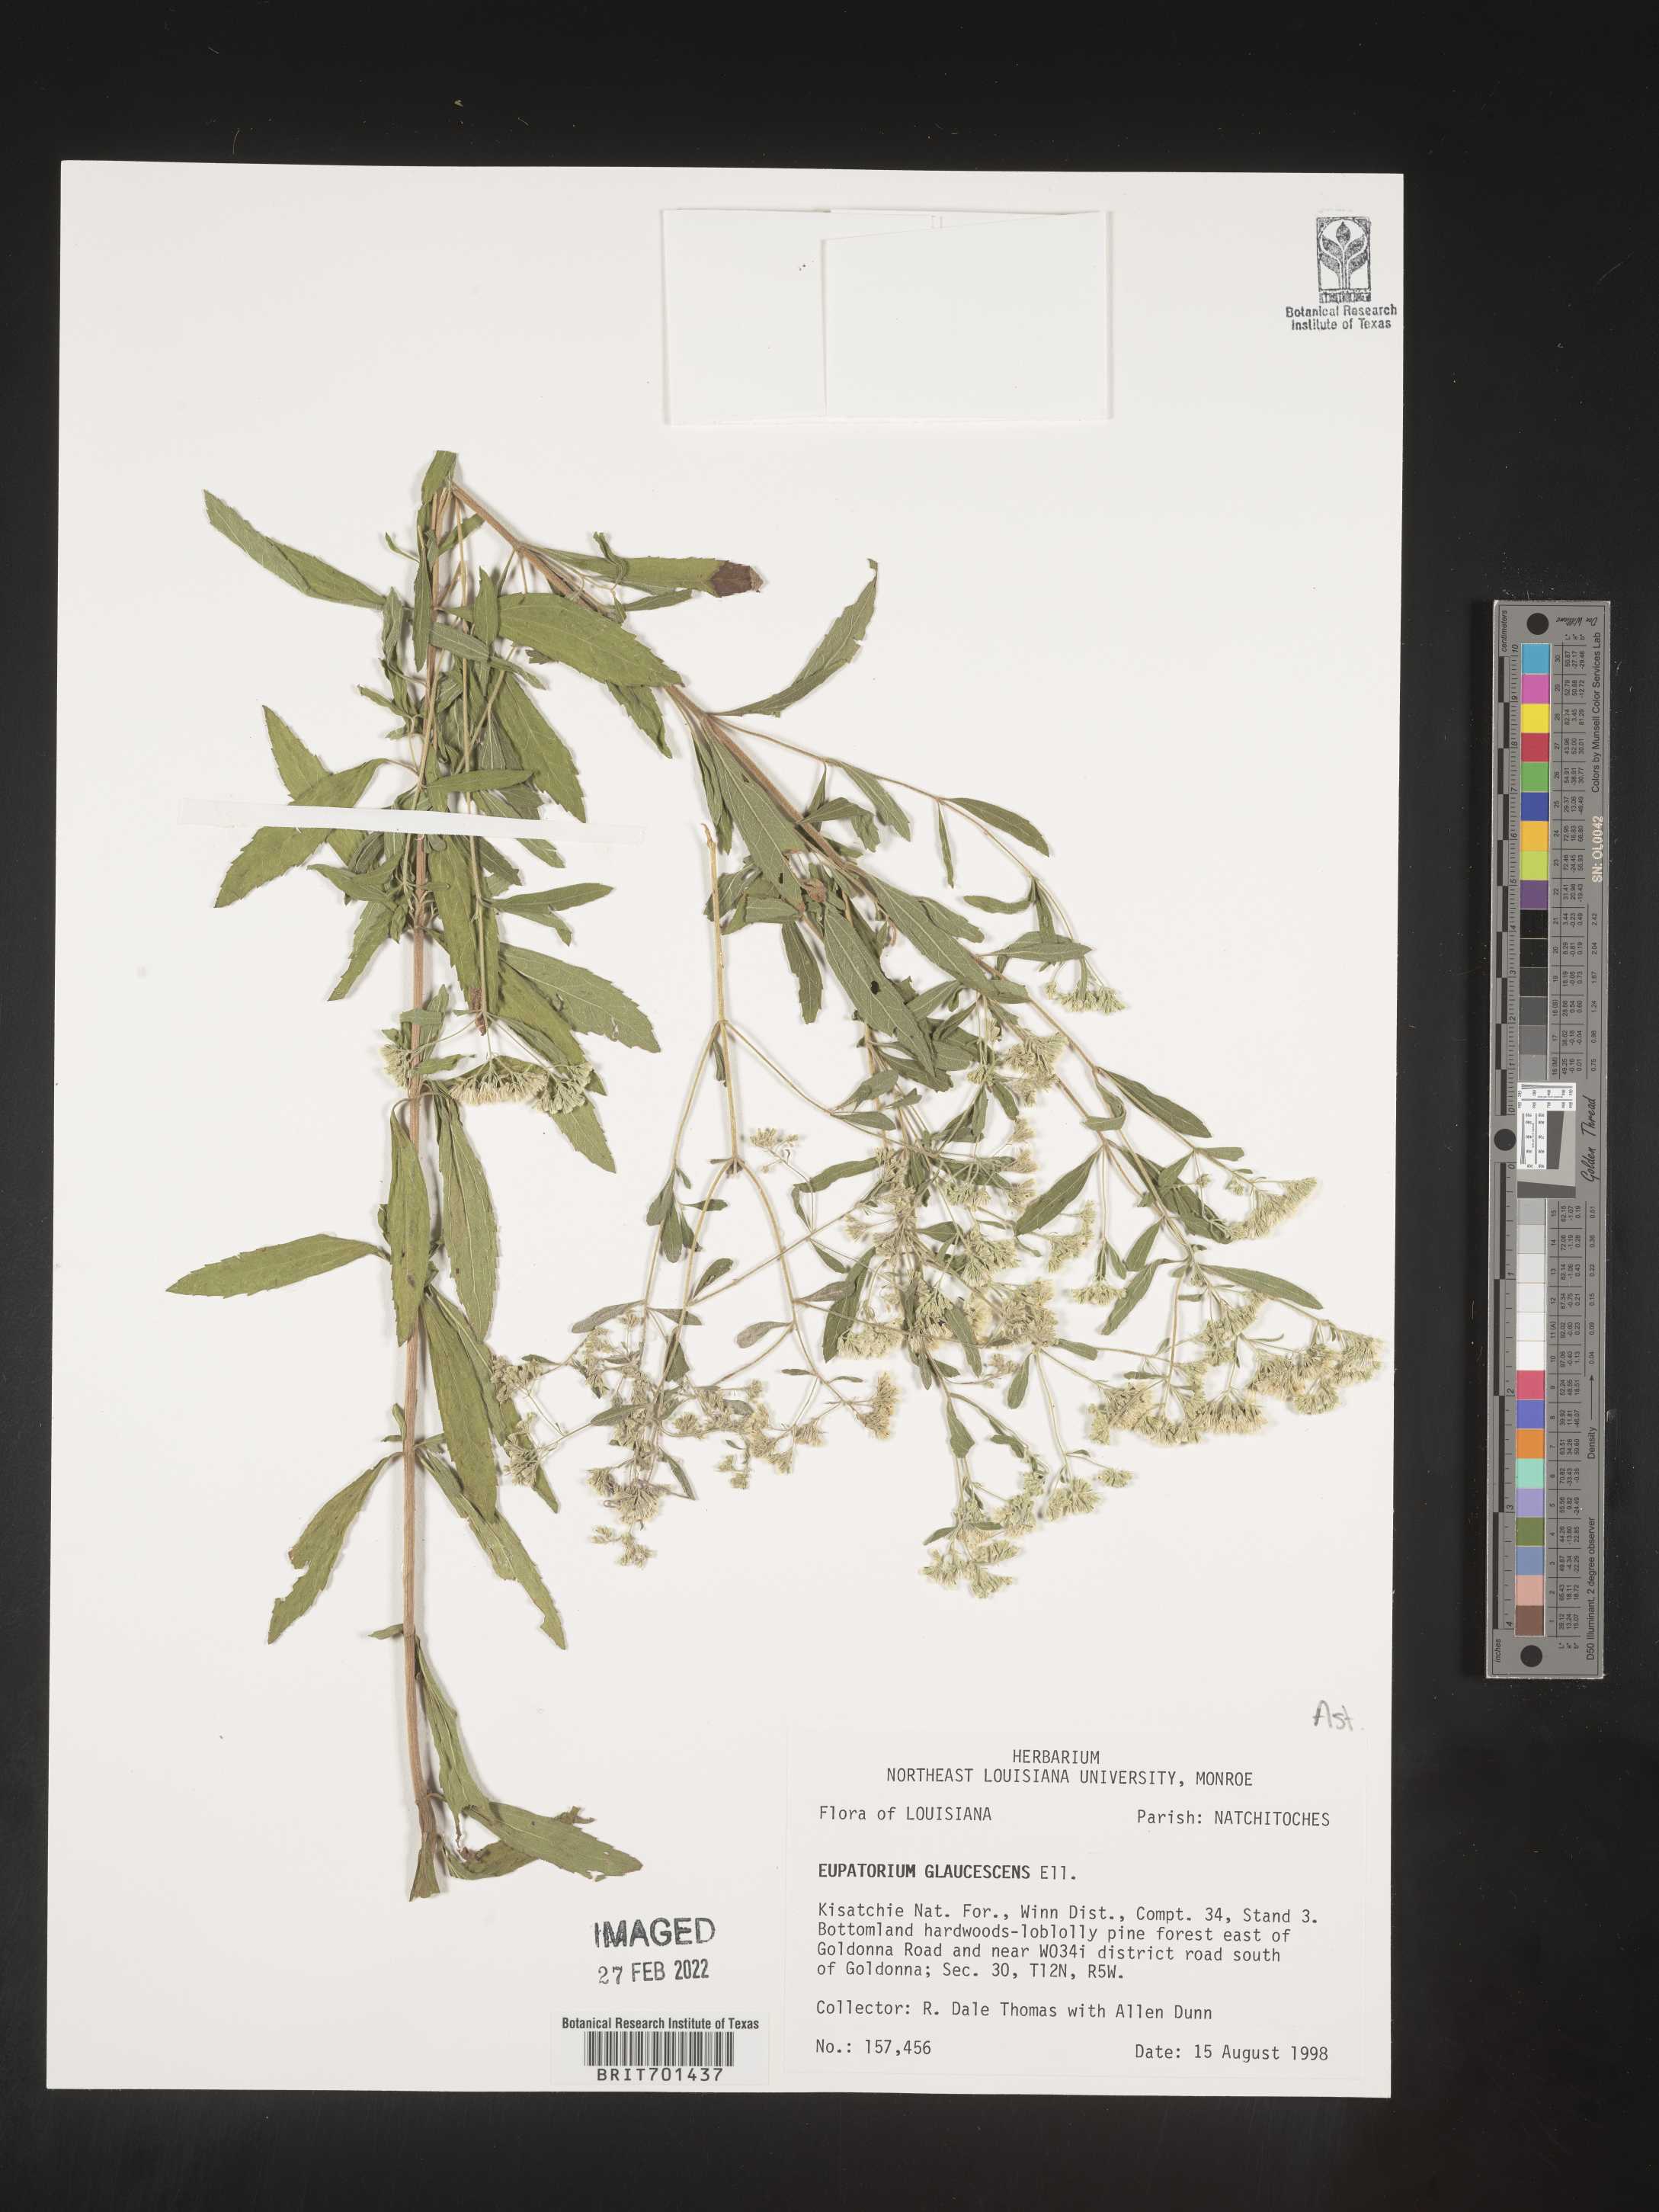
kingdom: Plantae
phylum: Tracheophyta
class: Magnoliopsida
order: Asterales
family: Asteraceae
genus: Eupatorium
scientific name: Eupatorium linearifolium
